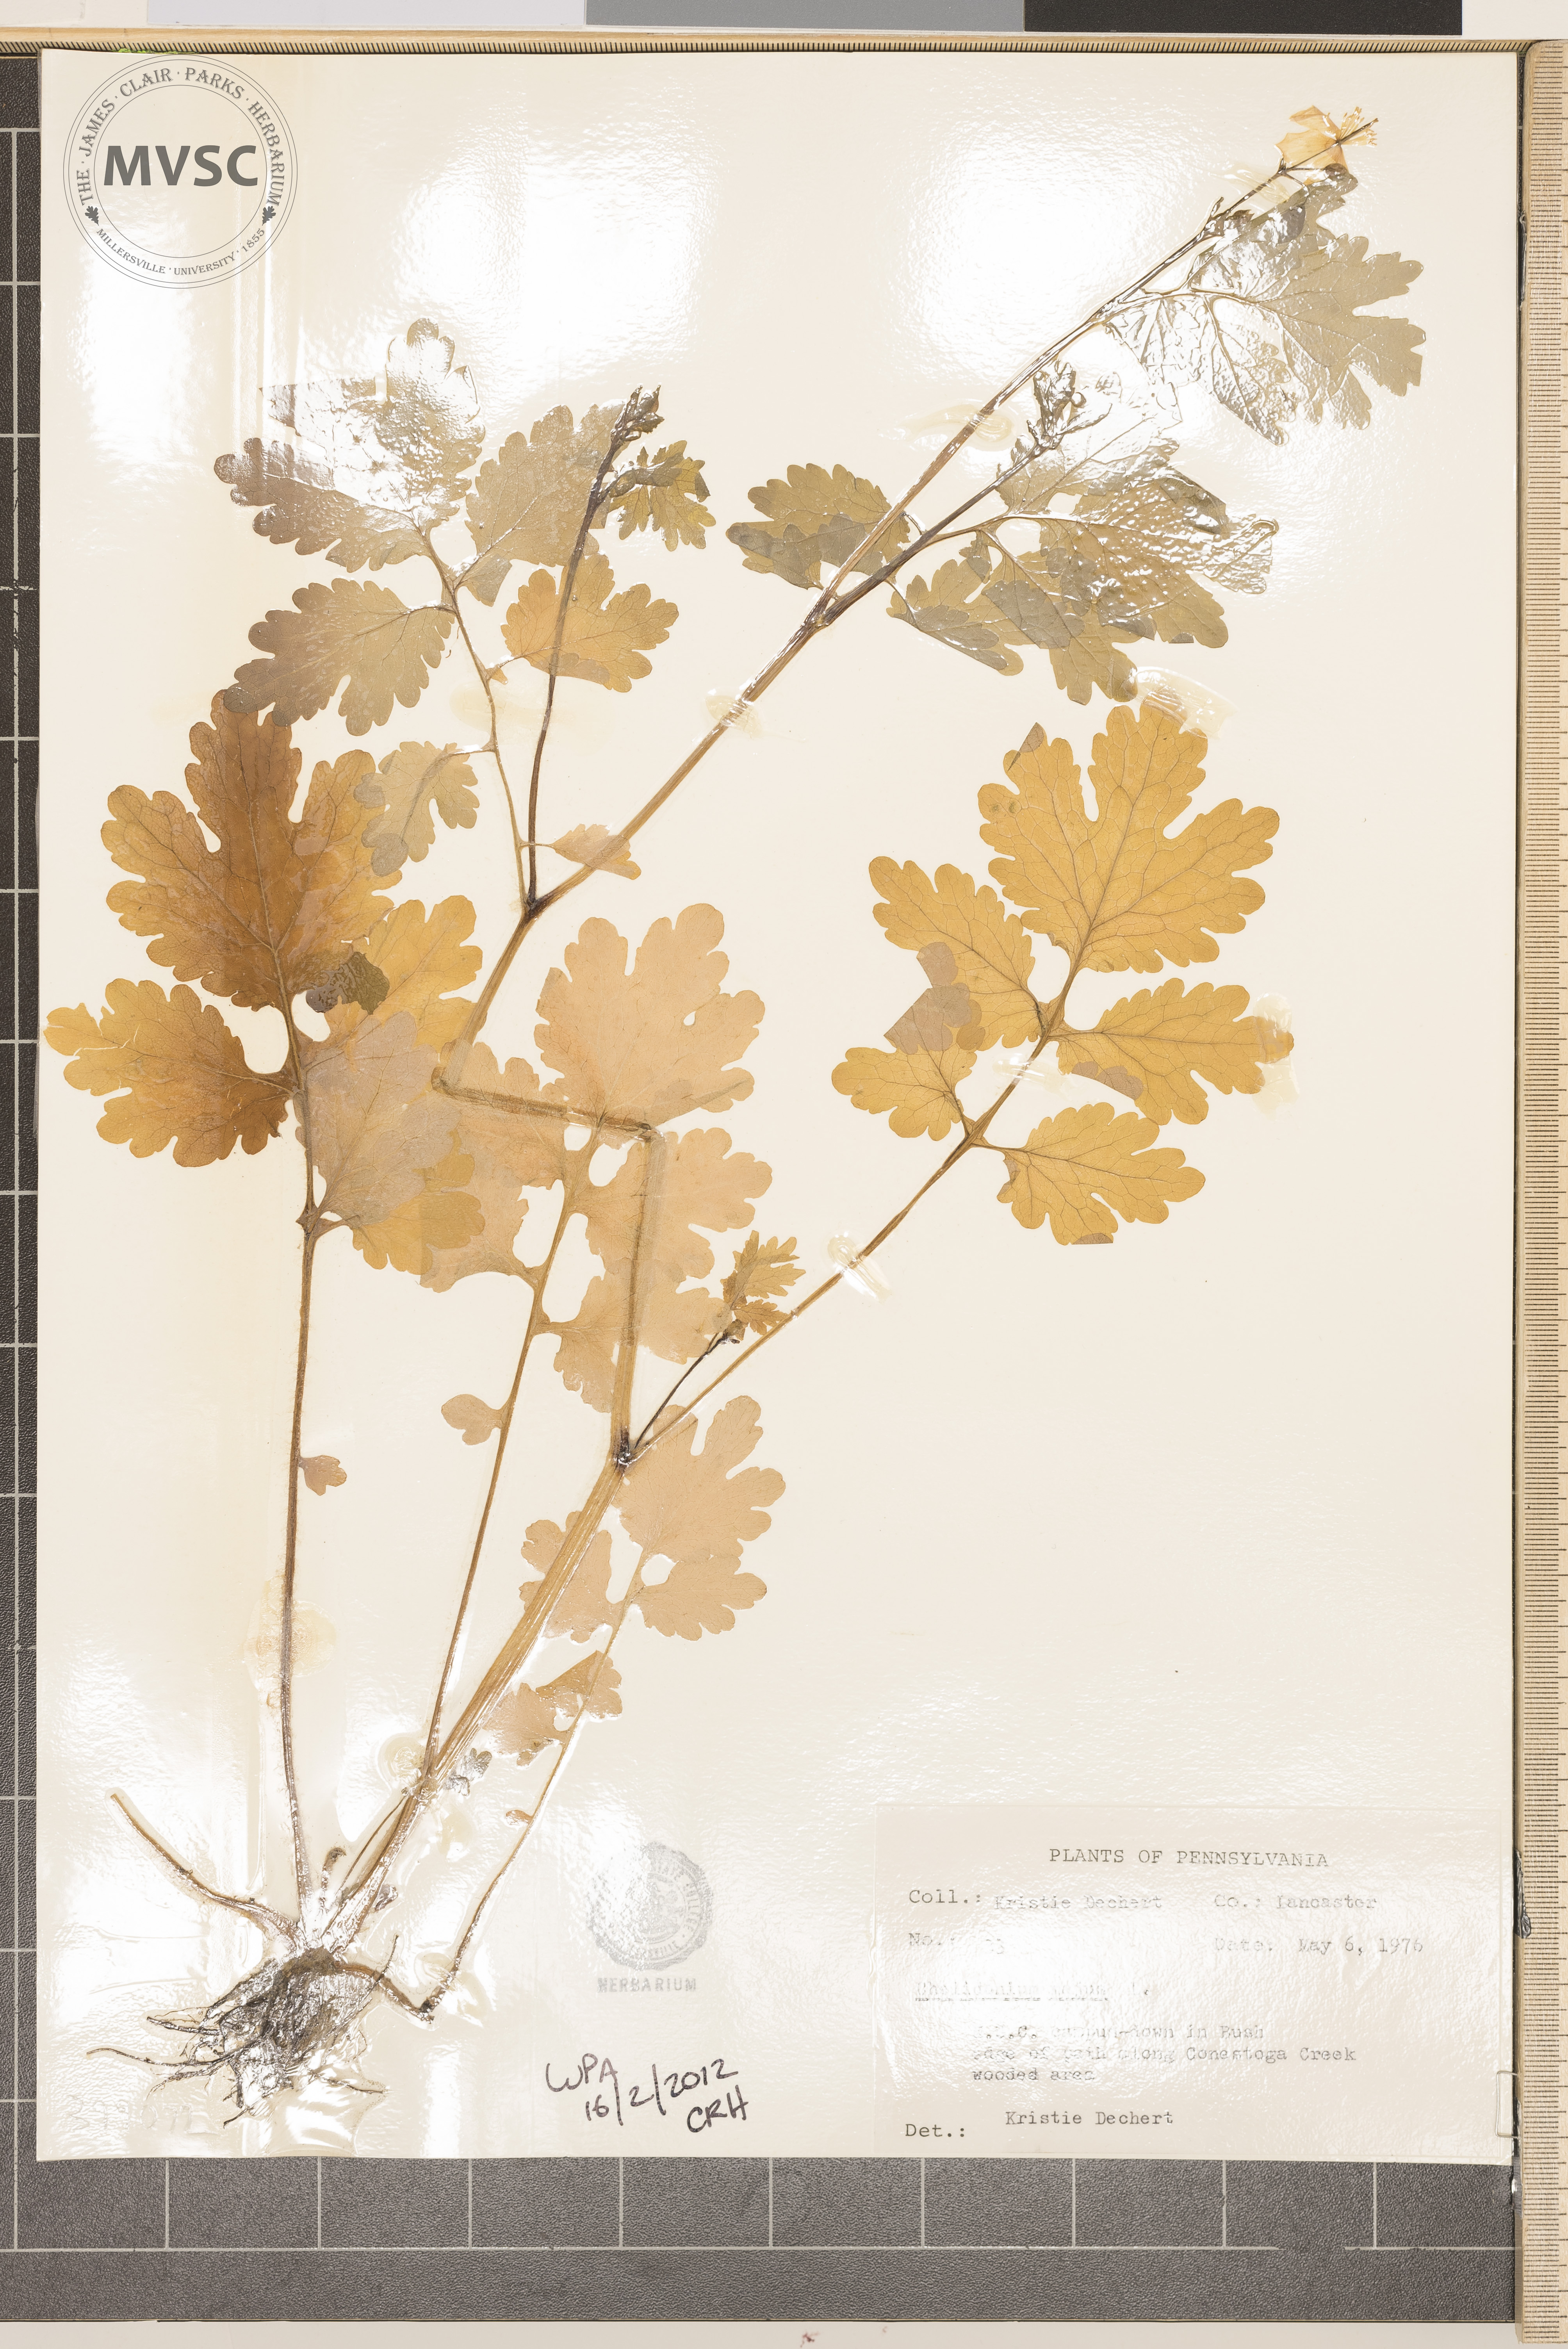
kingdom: Plantae
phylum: Tracheophyta
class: Magnoliopsida
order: Ranunculales
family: Papaveraceae
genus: Chelidonium
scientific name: Chelidonium majus
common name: Greater celandine
